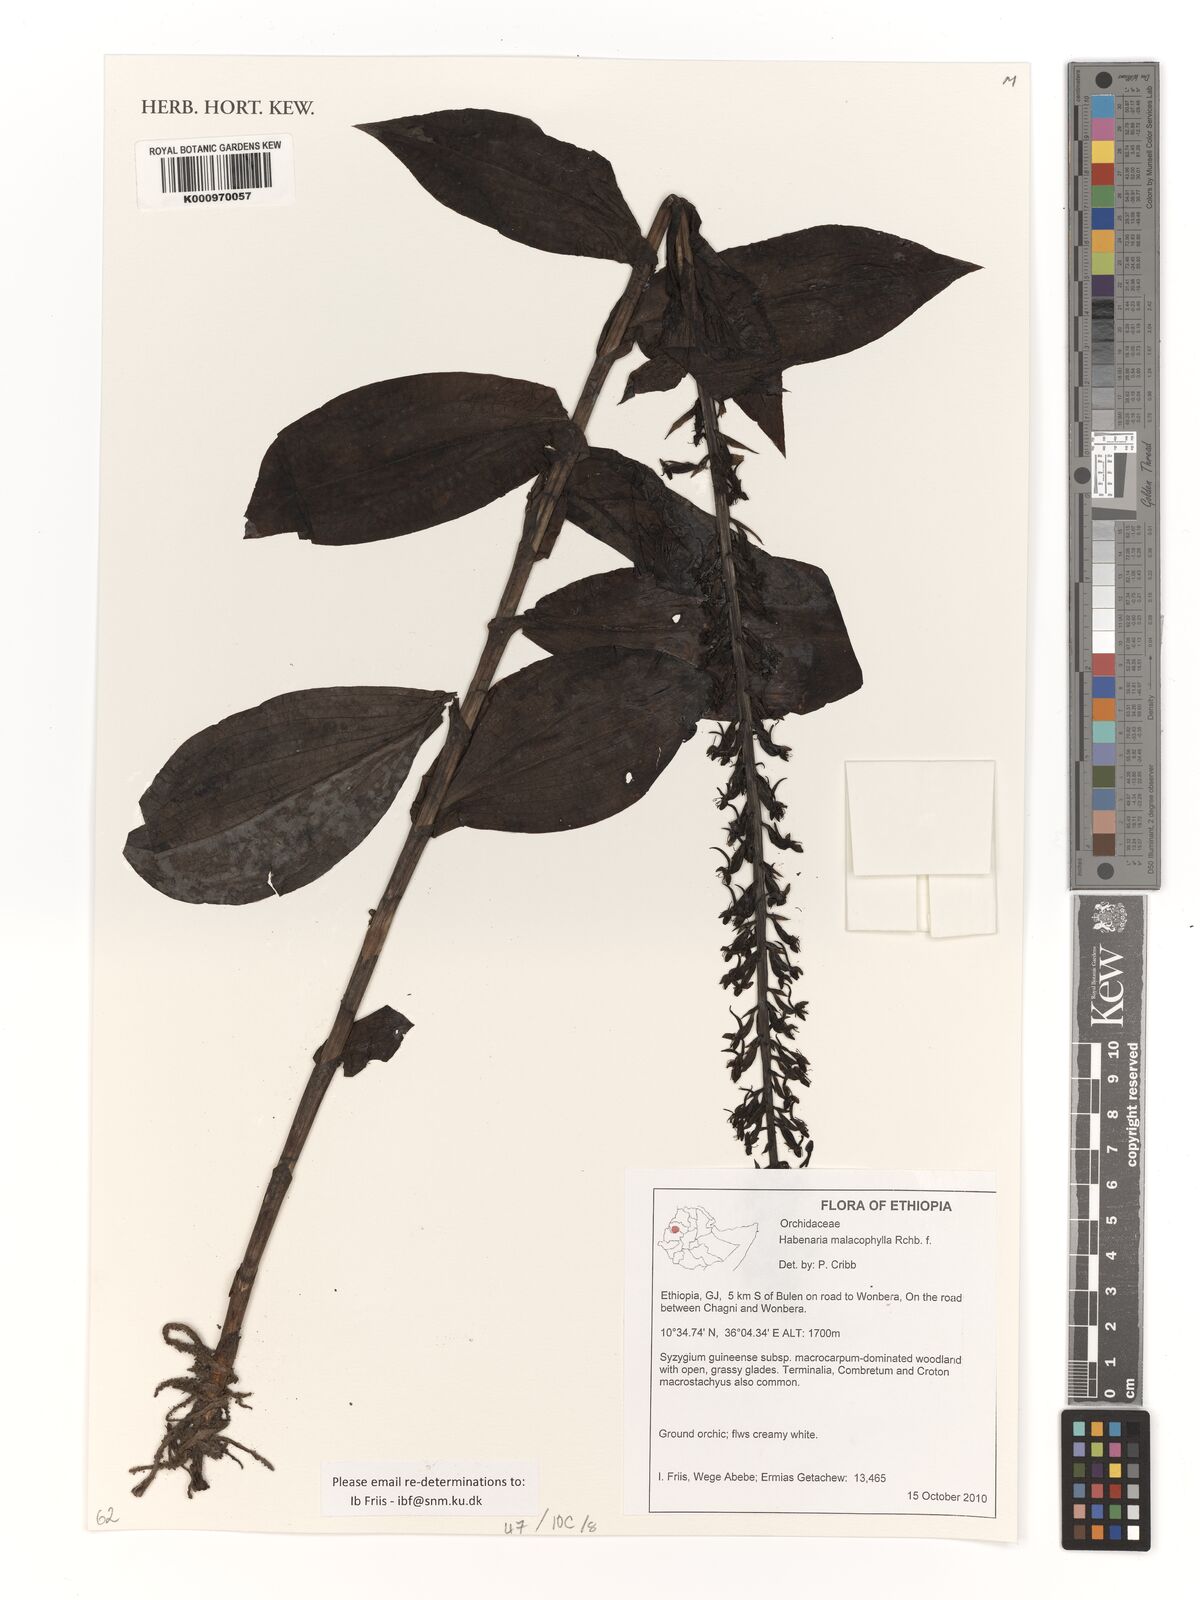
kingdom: Plantae
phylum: Tracheophyta
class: Liliopsida
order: Asparagales
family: Orchidaceae
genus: Habenaria
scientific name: Habenaria malacophylla
